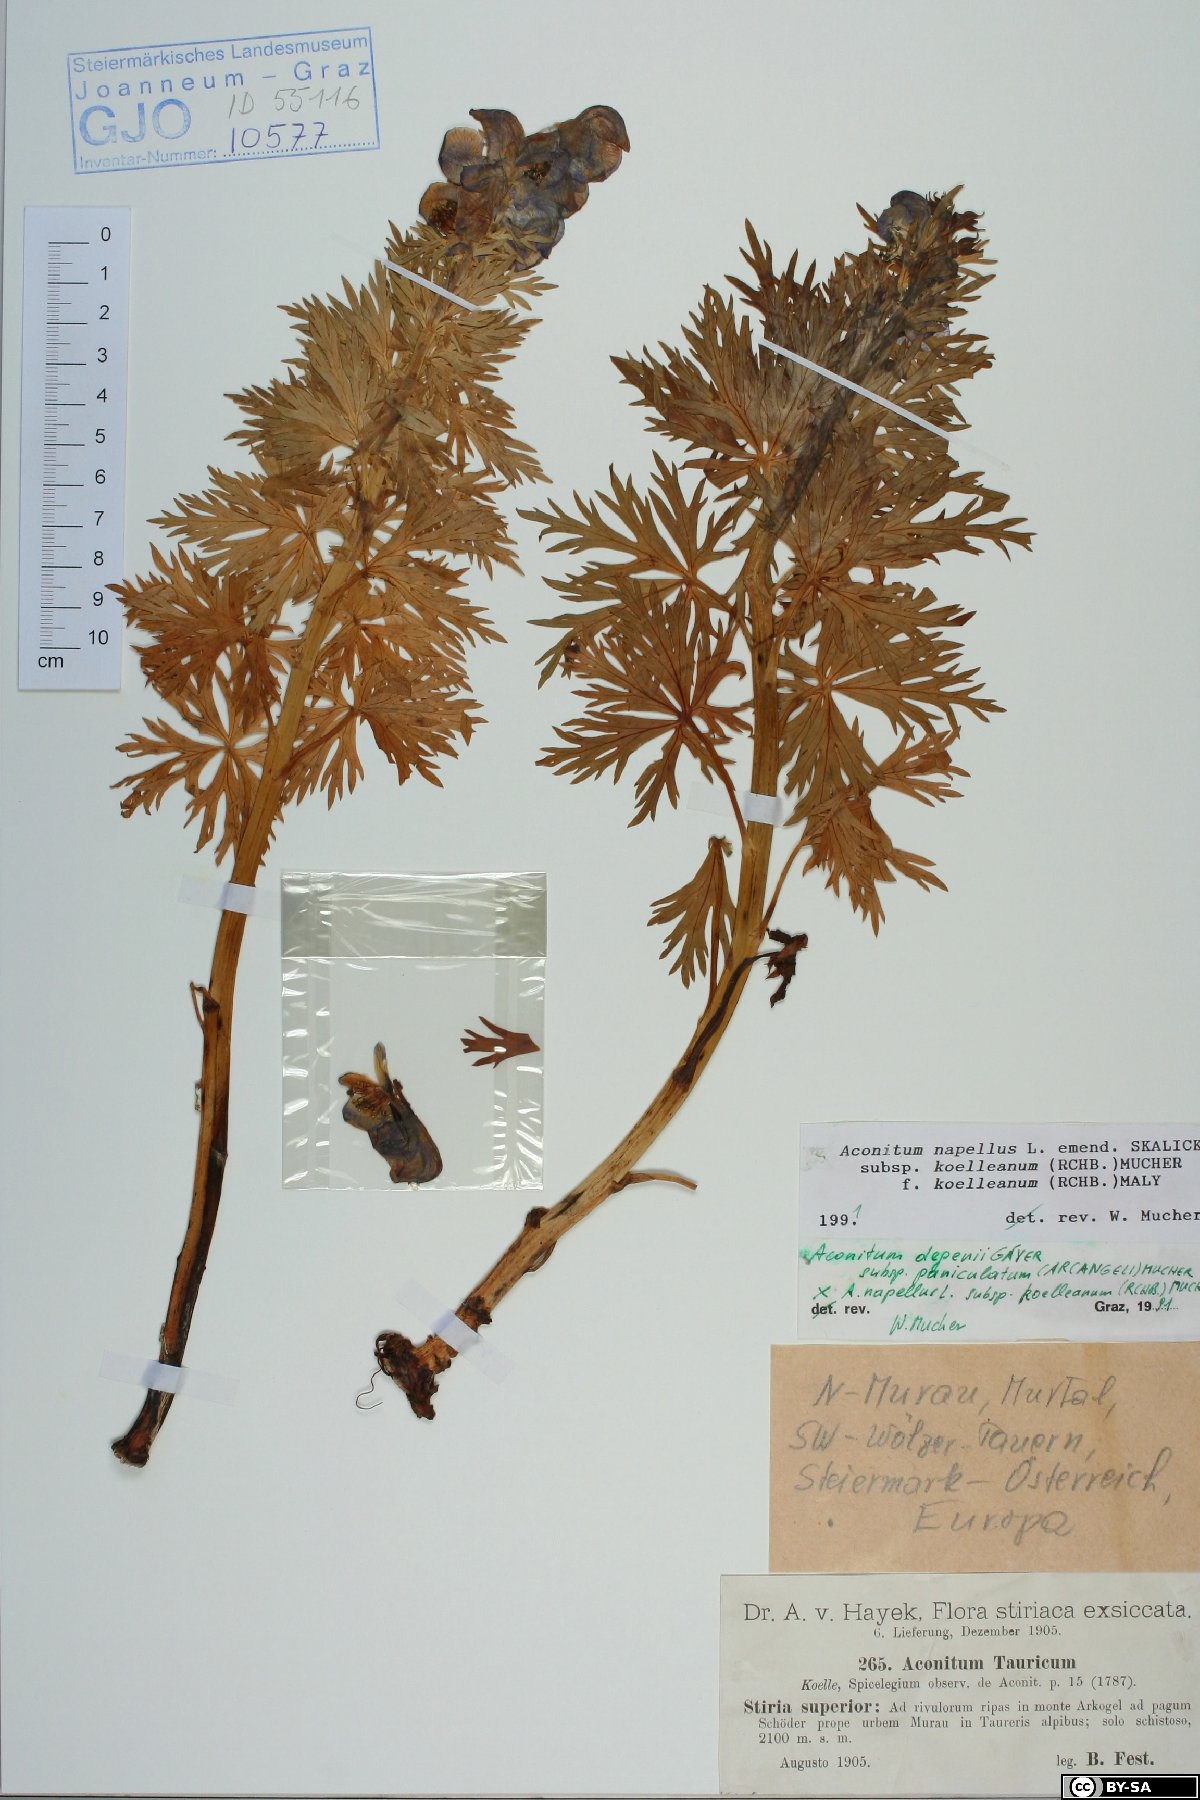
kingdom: Plantae
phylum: Tracheophyta
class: Magnoliopsida
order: Ranunculales
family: Ranunculaceae
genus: Aconitum
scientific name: Aconitum tauricum
